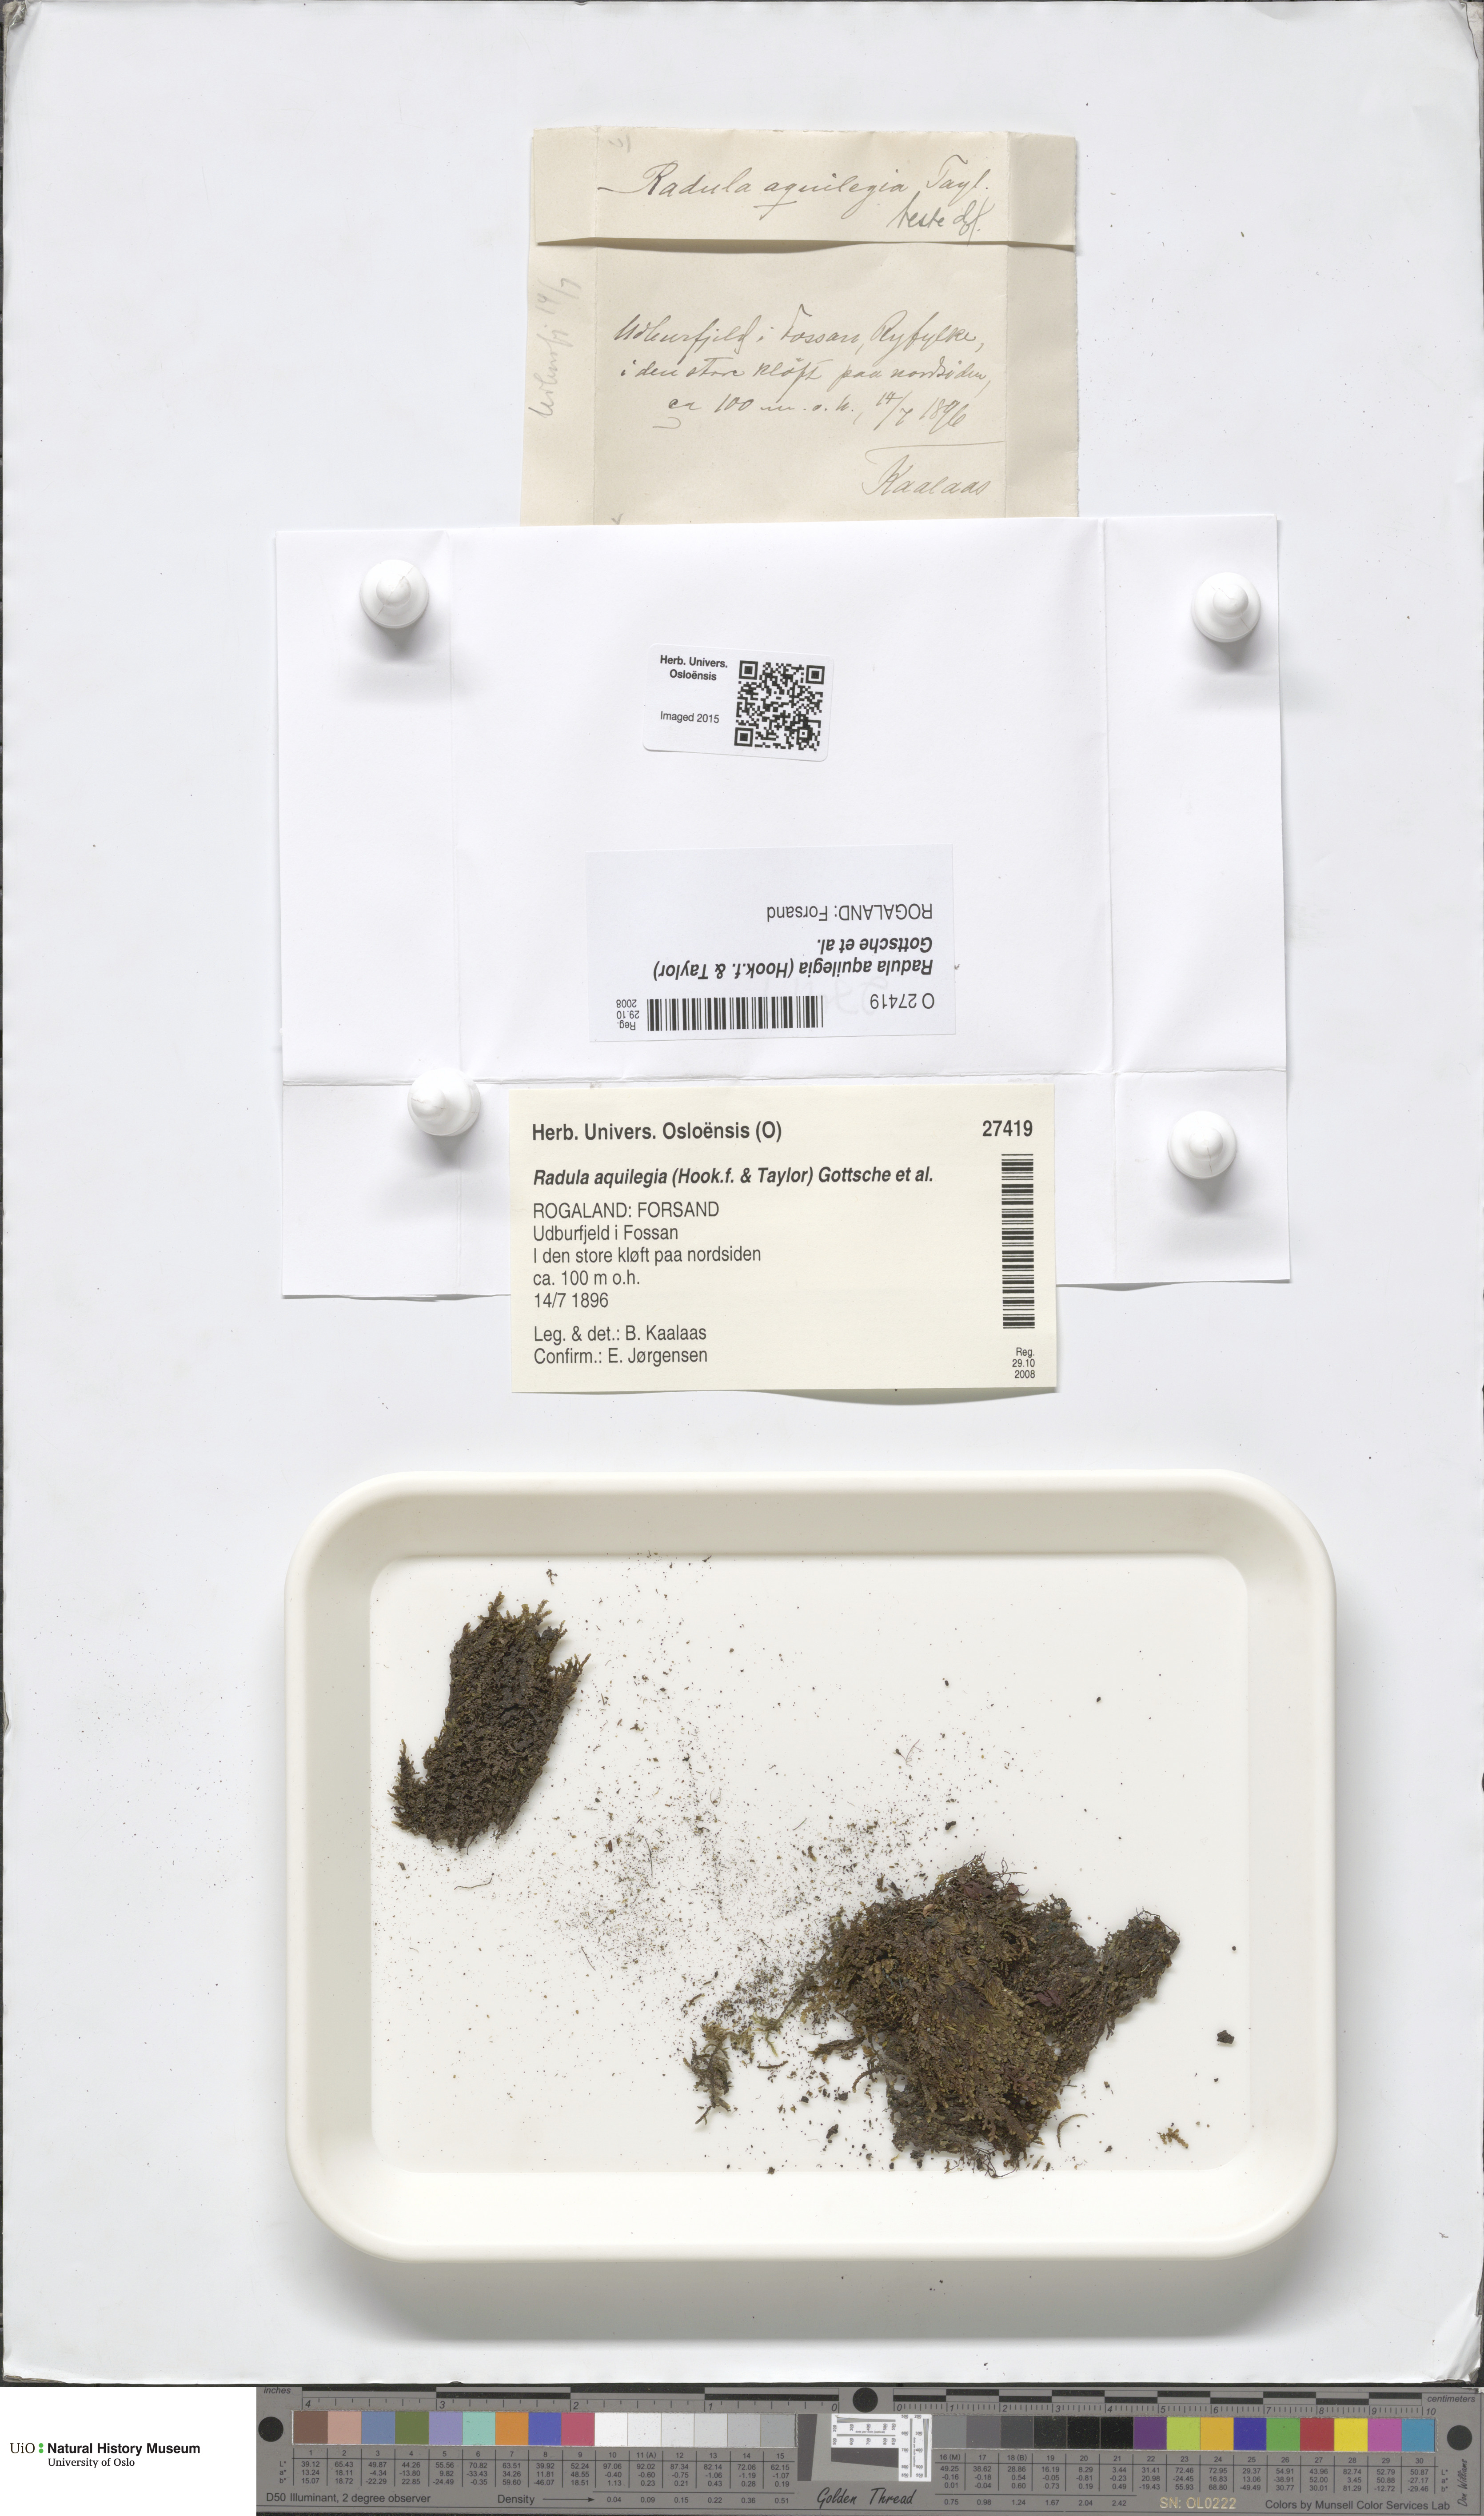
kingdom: Plantae
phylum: Marchantiophyta
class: Jungermanniopsida
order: Porellales
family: Radulaceae
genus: Radula
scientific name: Radula aquilegia
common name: Brown scalewort
